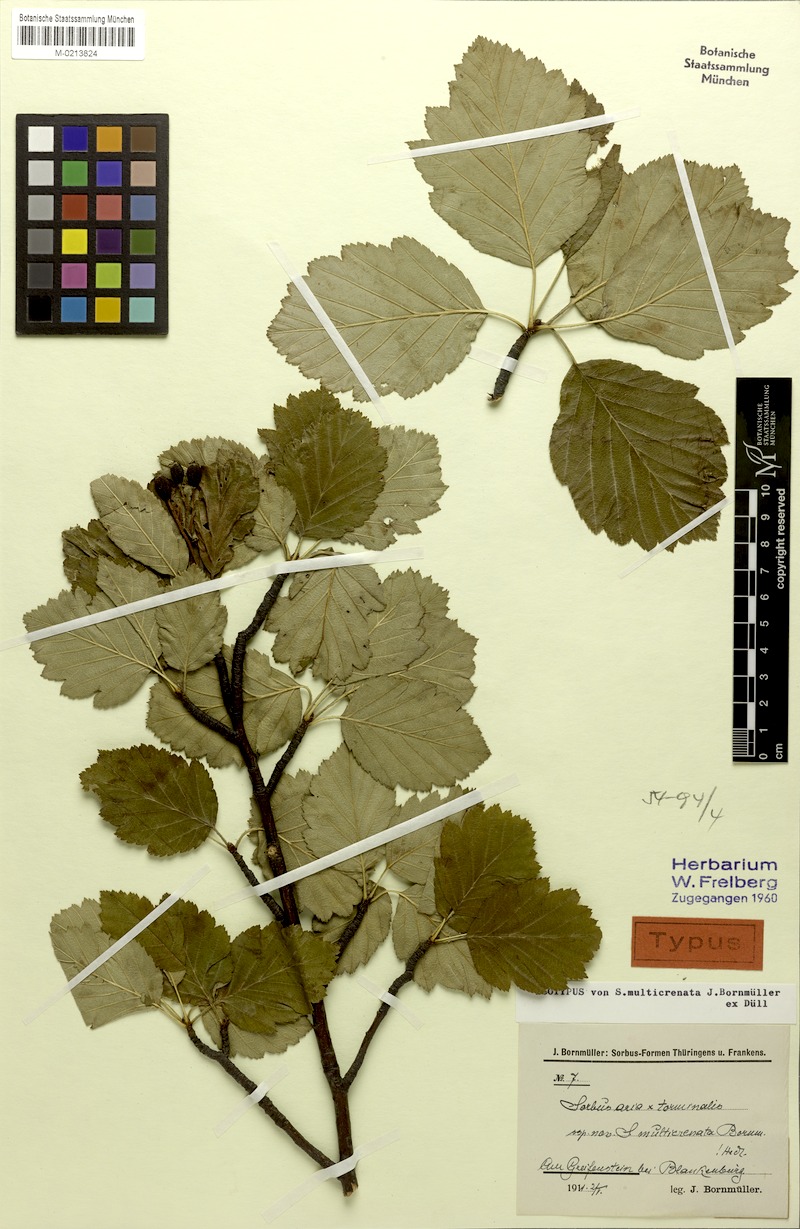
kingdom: Plantae
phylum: Tracheophyta
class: Magnoliopsida
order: Rosales
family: Rosaceae
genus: Karpatiosorbus
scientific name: Karpatiosorbus hybrida
